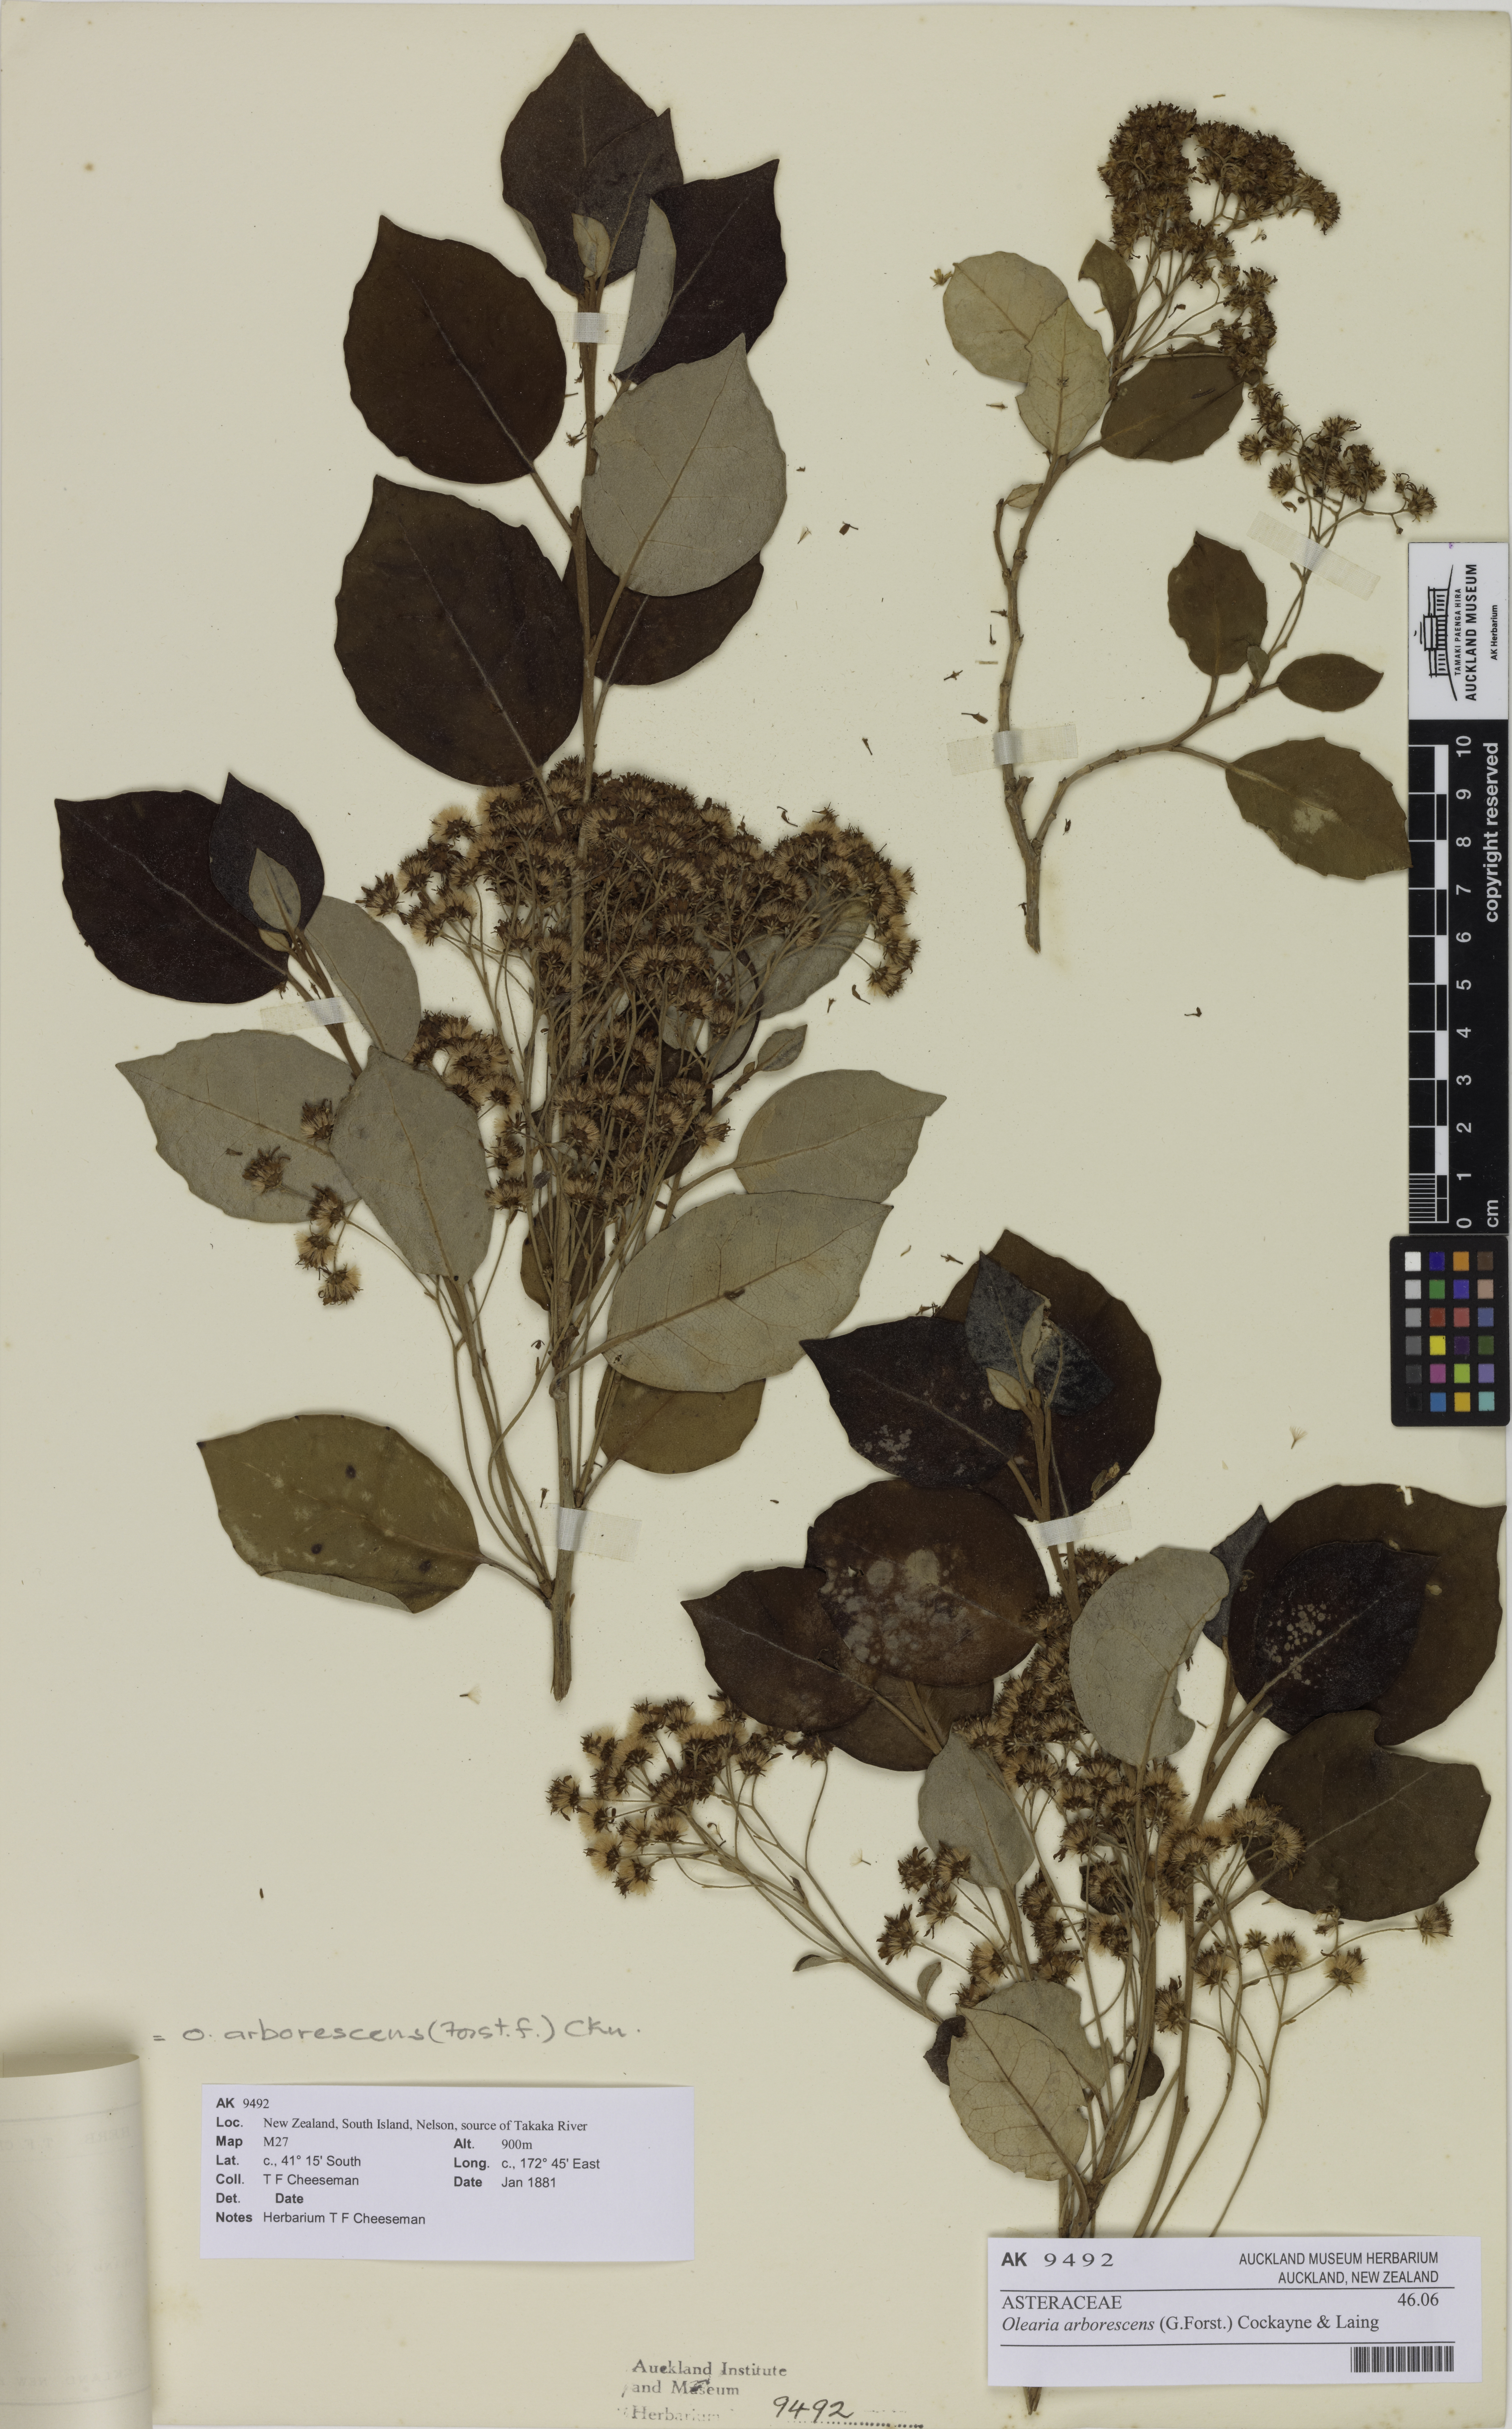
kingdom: Plantae
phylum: Tracheophyta
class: Magnoliopsida
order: Asterales
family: Asteraceae
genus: Olearia
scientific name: Olearia arborescens
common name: Glossy tree daisy
